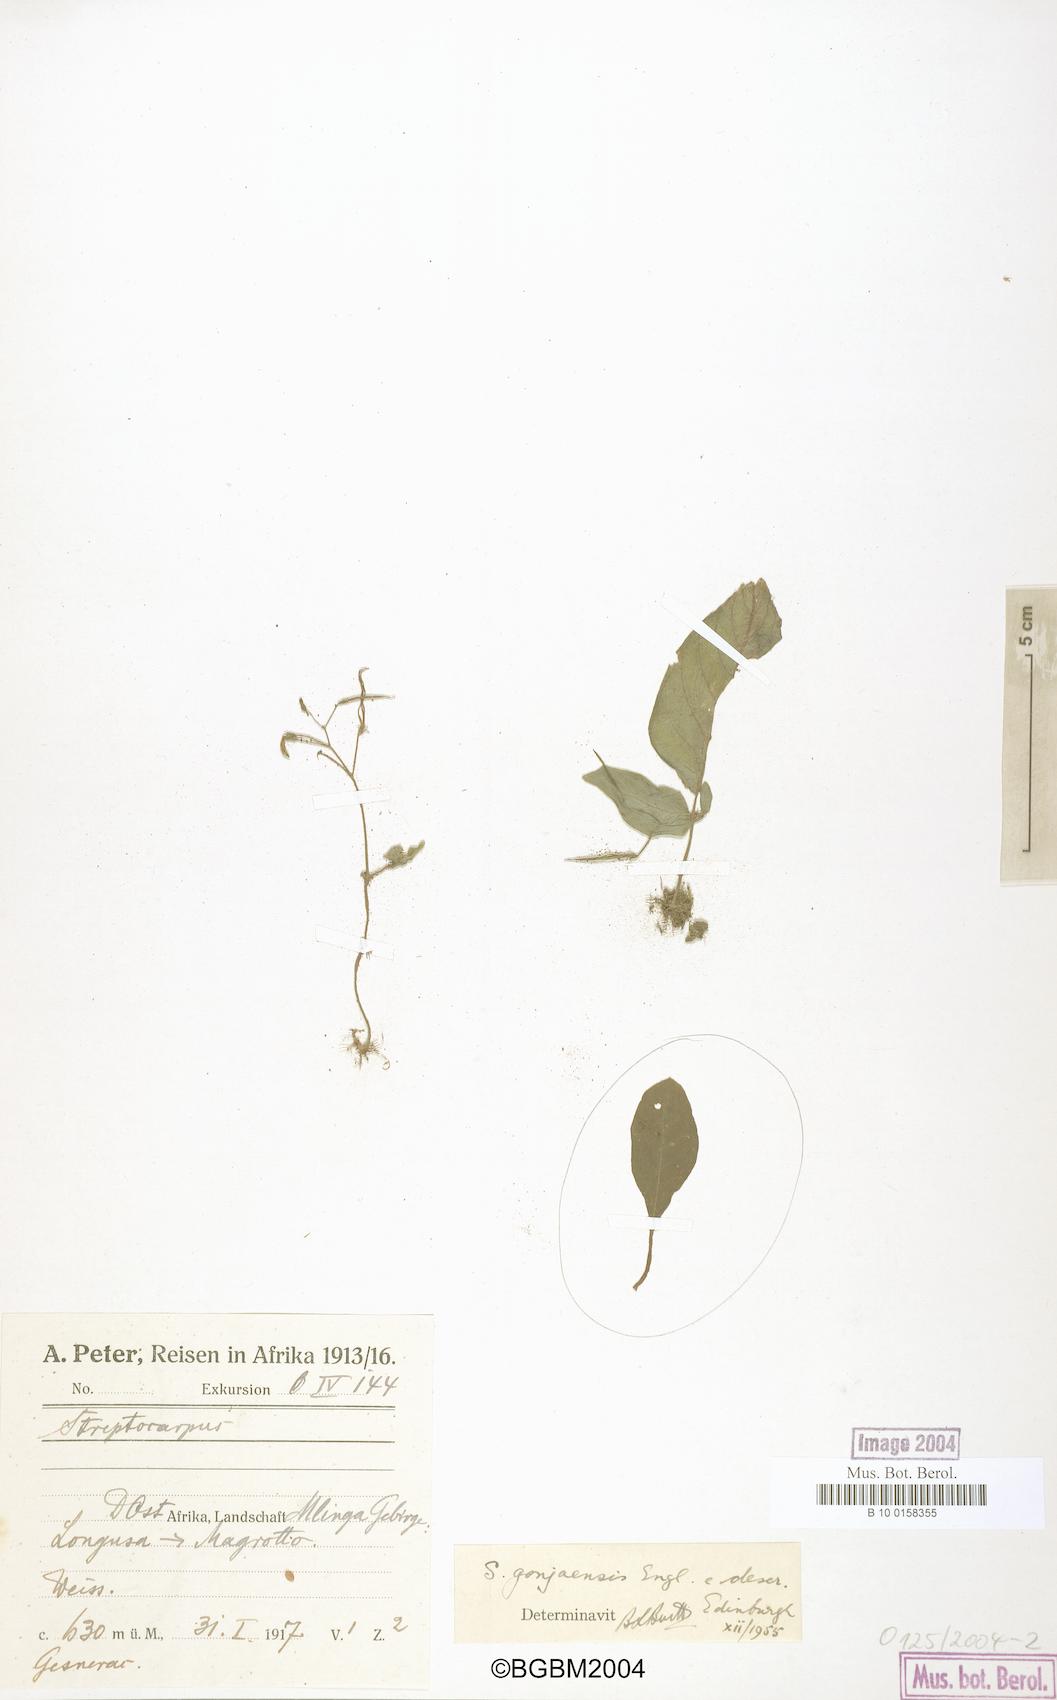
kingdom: Plantae
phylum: Tracheophyta
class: Magnoliopsida
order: Lamiales
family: Gesneriaceae
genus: Streptocarpus
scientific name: Streptocarpus gonjaensis
